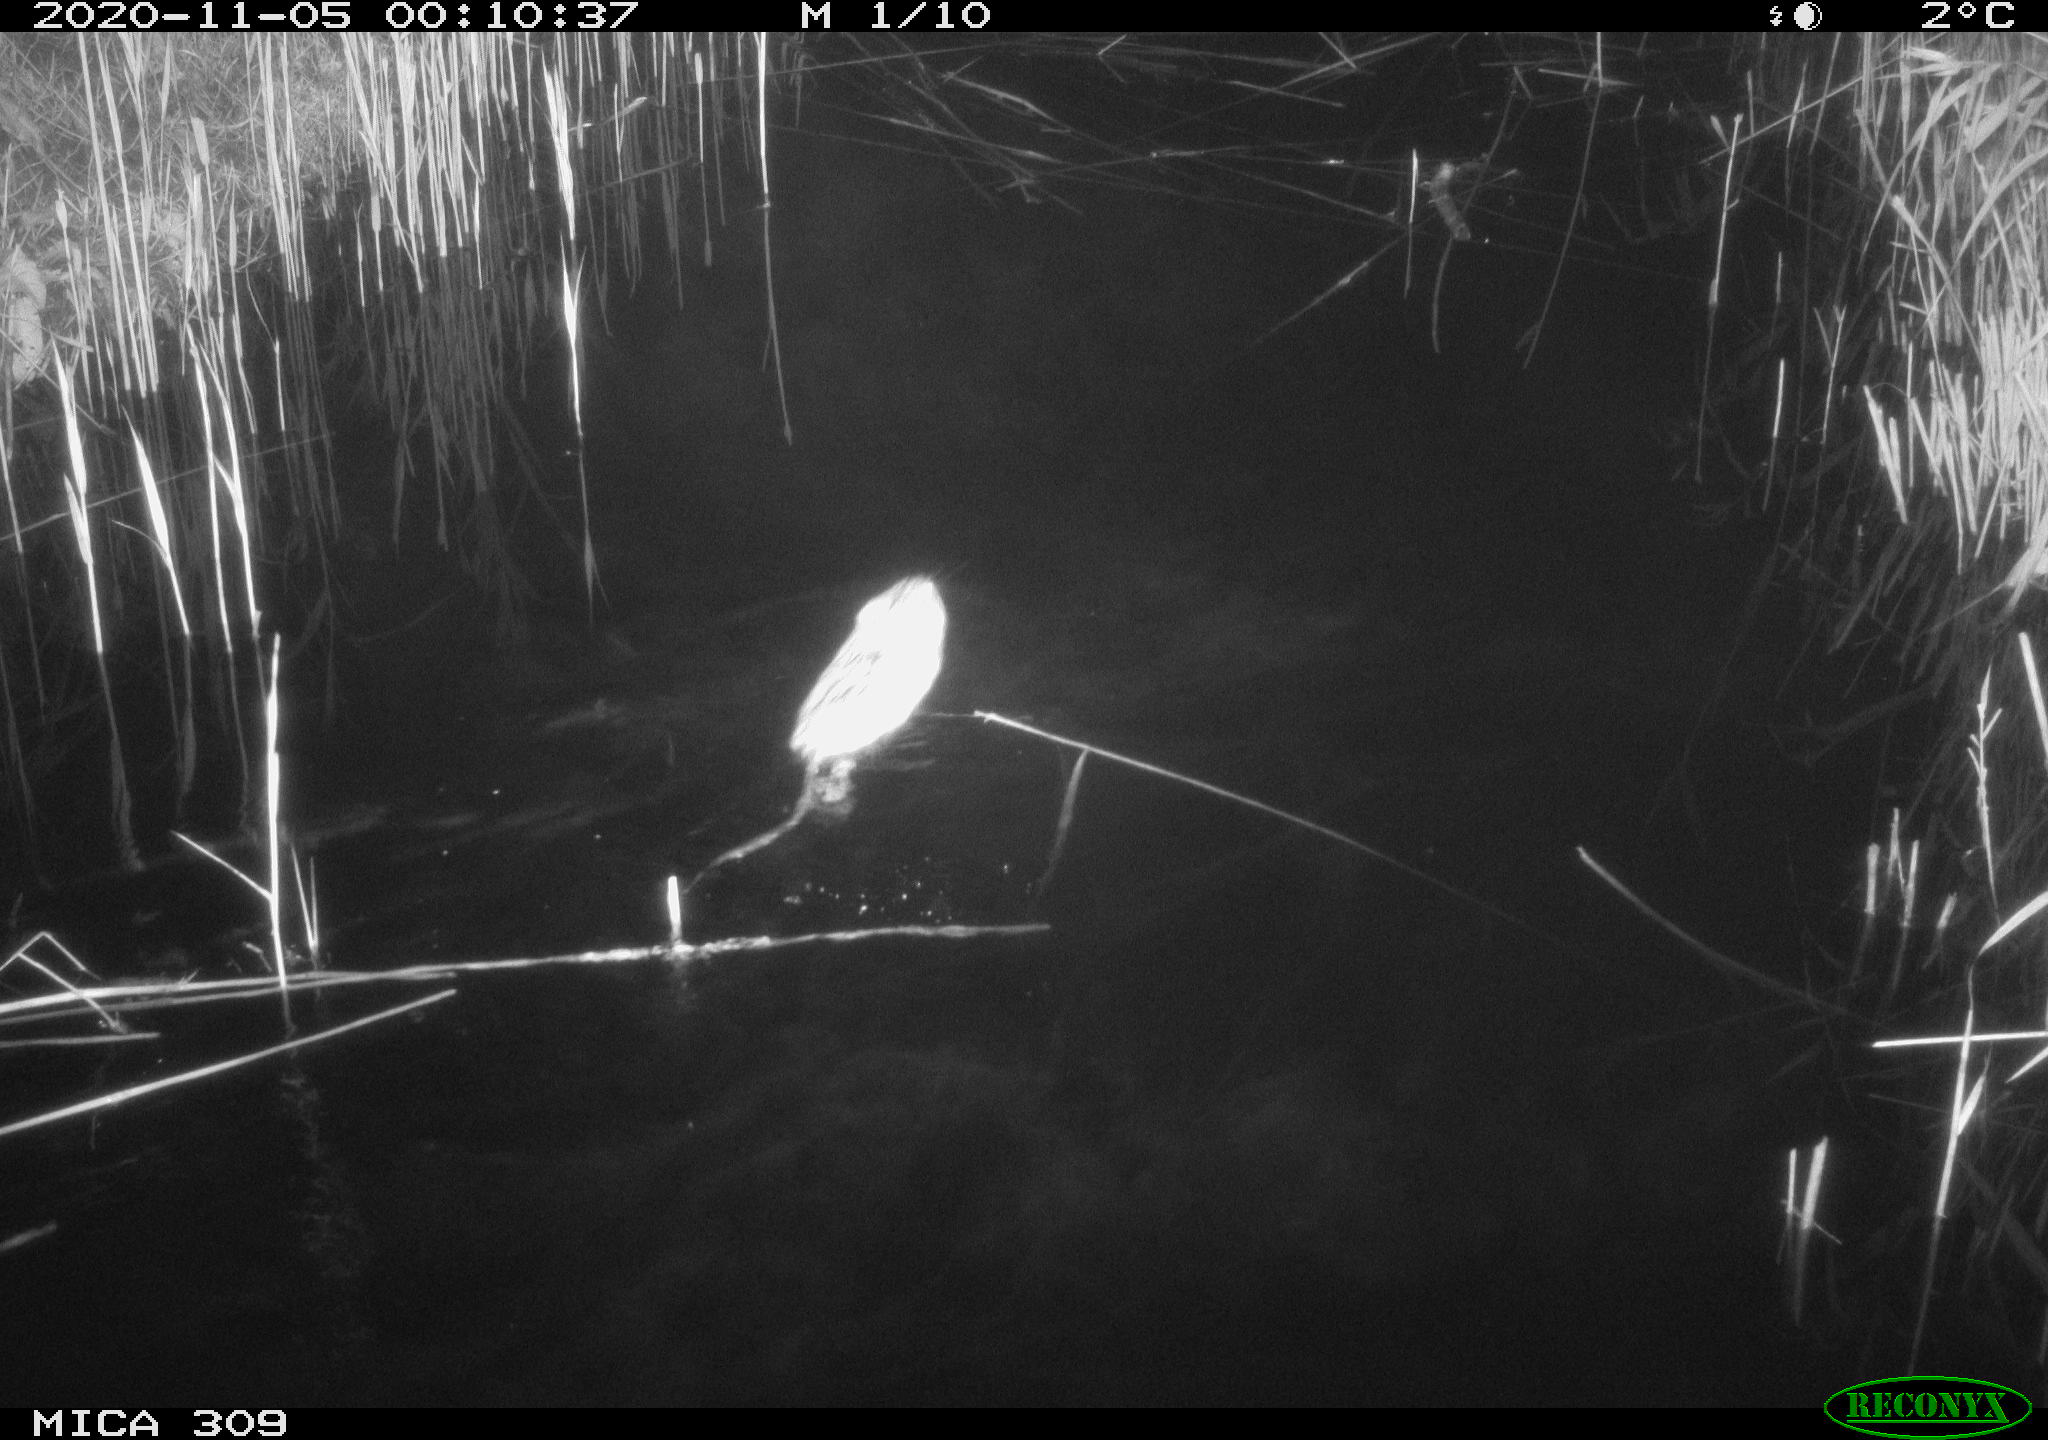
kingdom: Animalia
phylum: Chordata
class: Mammalia
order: Rodentia
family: Muridae
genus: Rattus
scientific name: Rattus norvegicus
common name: Brown rat
